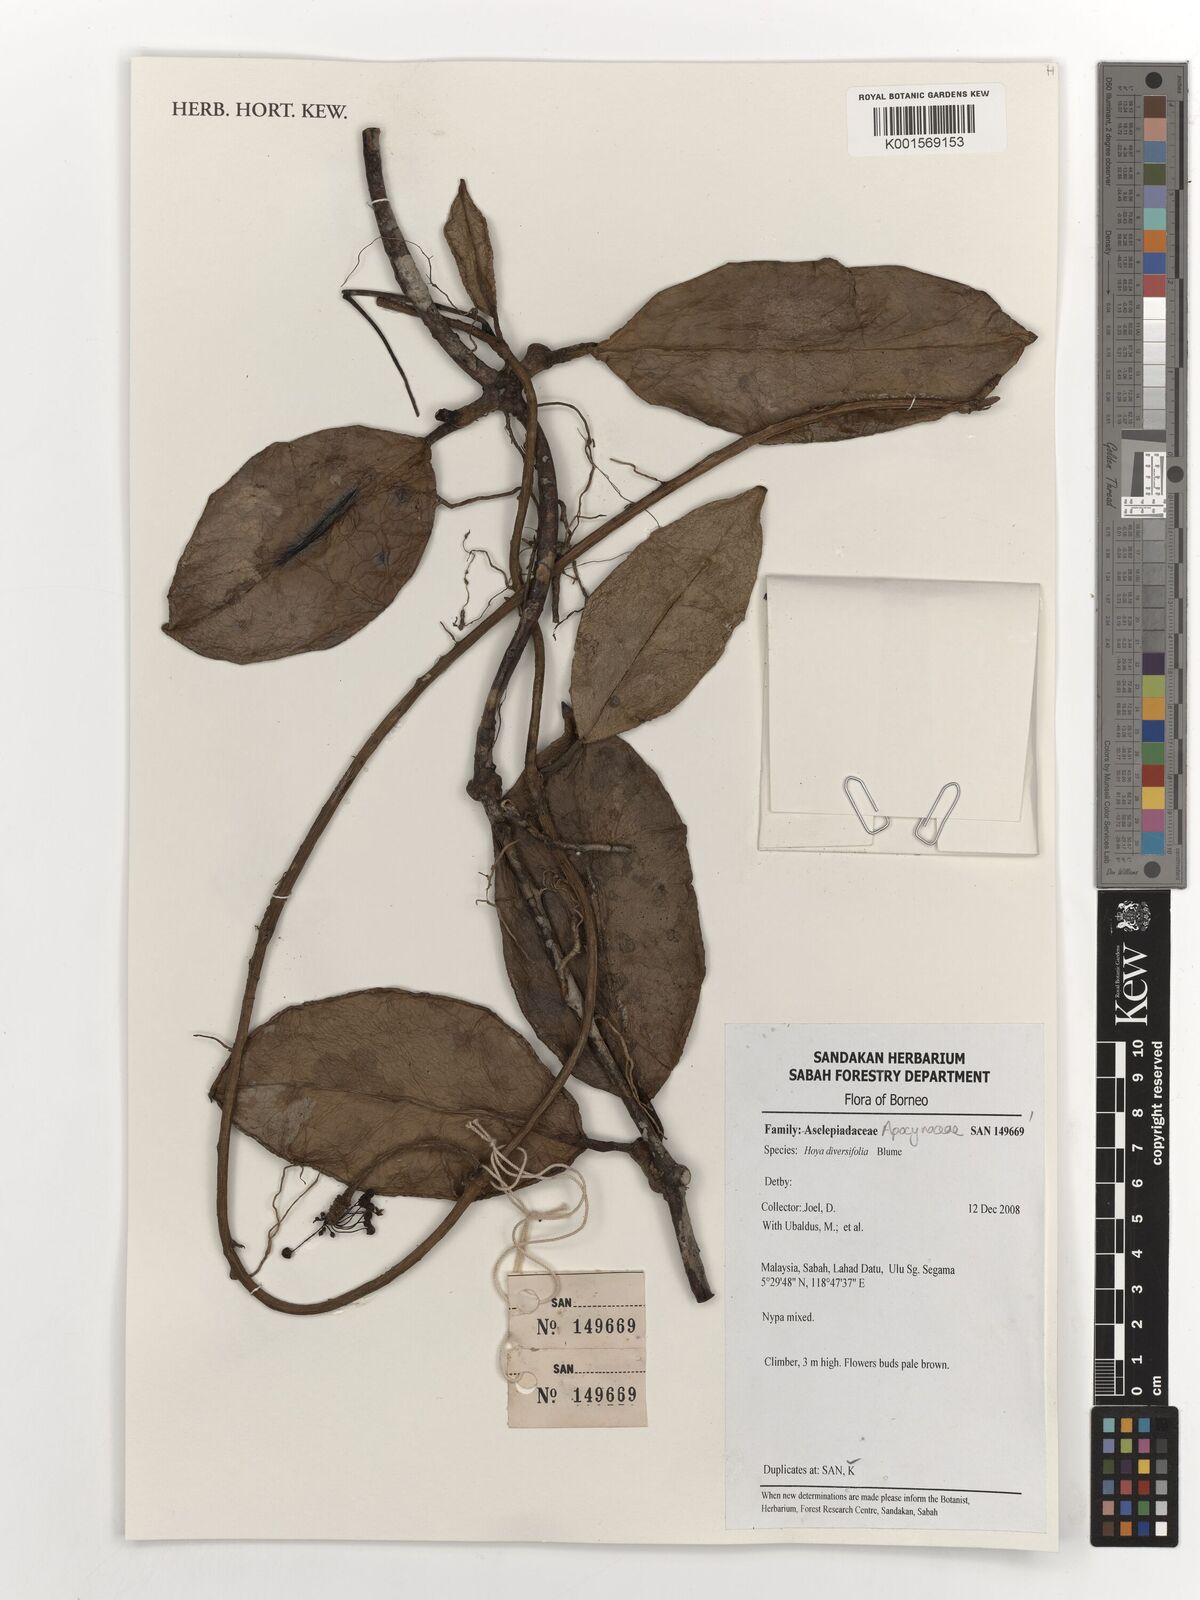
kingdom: Plantae
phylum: Tracheophyta
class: Magnoliopsida
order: Gentianales
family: Apocynaceae
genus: Hoya
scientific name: Hoya diversifolia
